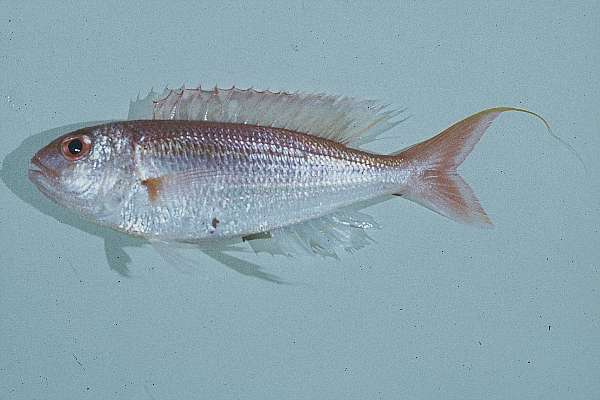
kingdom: Animalia
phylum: Chordata
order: Perciformes
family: Nemipteridae
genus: Nemipterus
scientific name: Nemipterus zysron
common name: Slender threadfin bream
